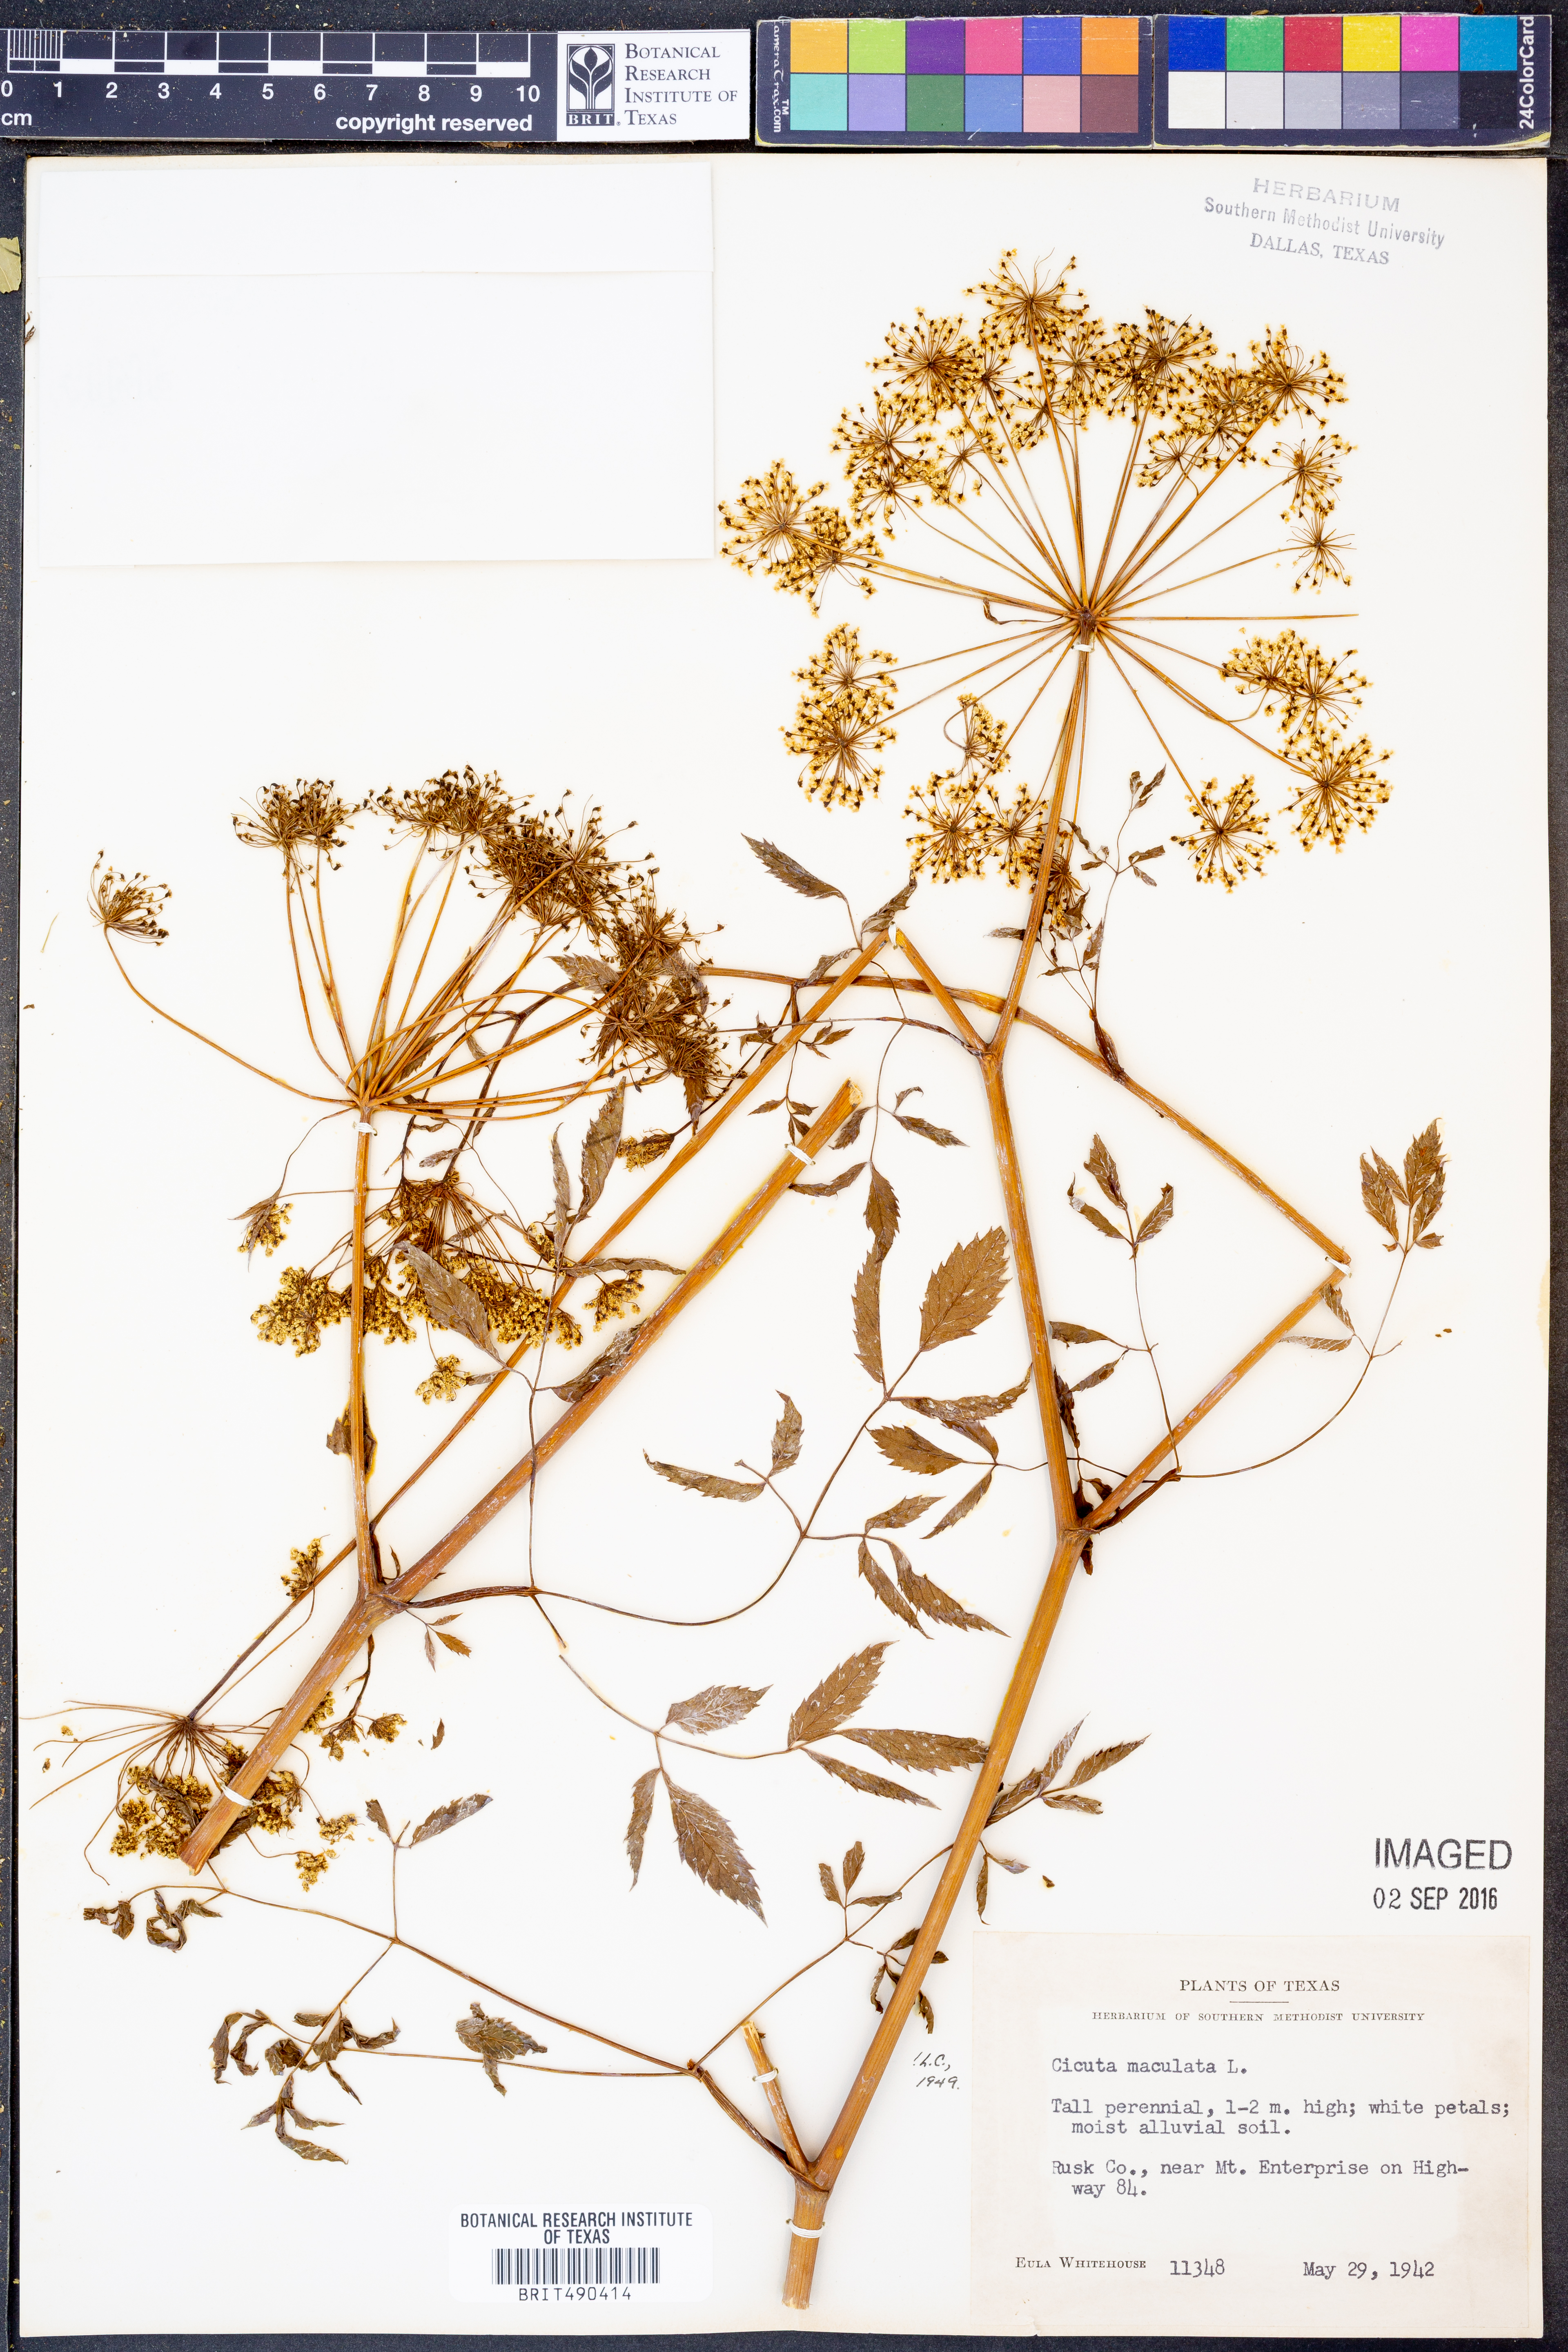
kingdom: Plantae
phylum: Tracheophyta
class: Magnoliopsida
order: Apiales
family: Apiaceae
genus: Cicuta
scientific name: Cicuta maculata
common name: Spotted cowbane
